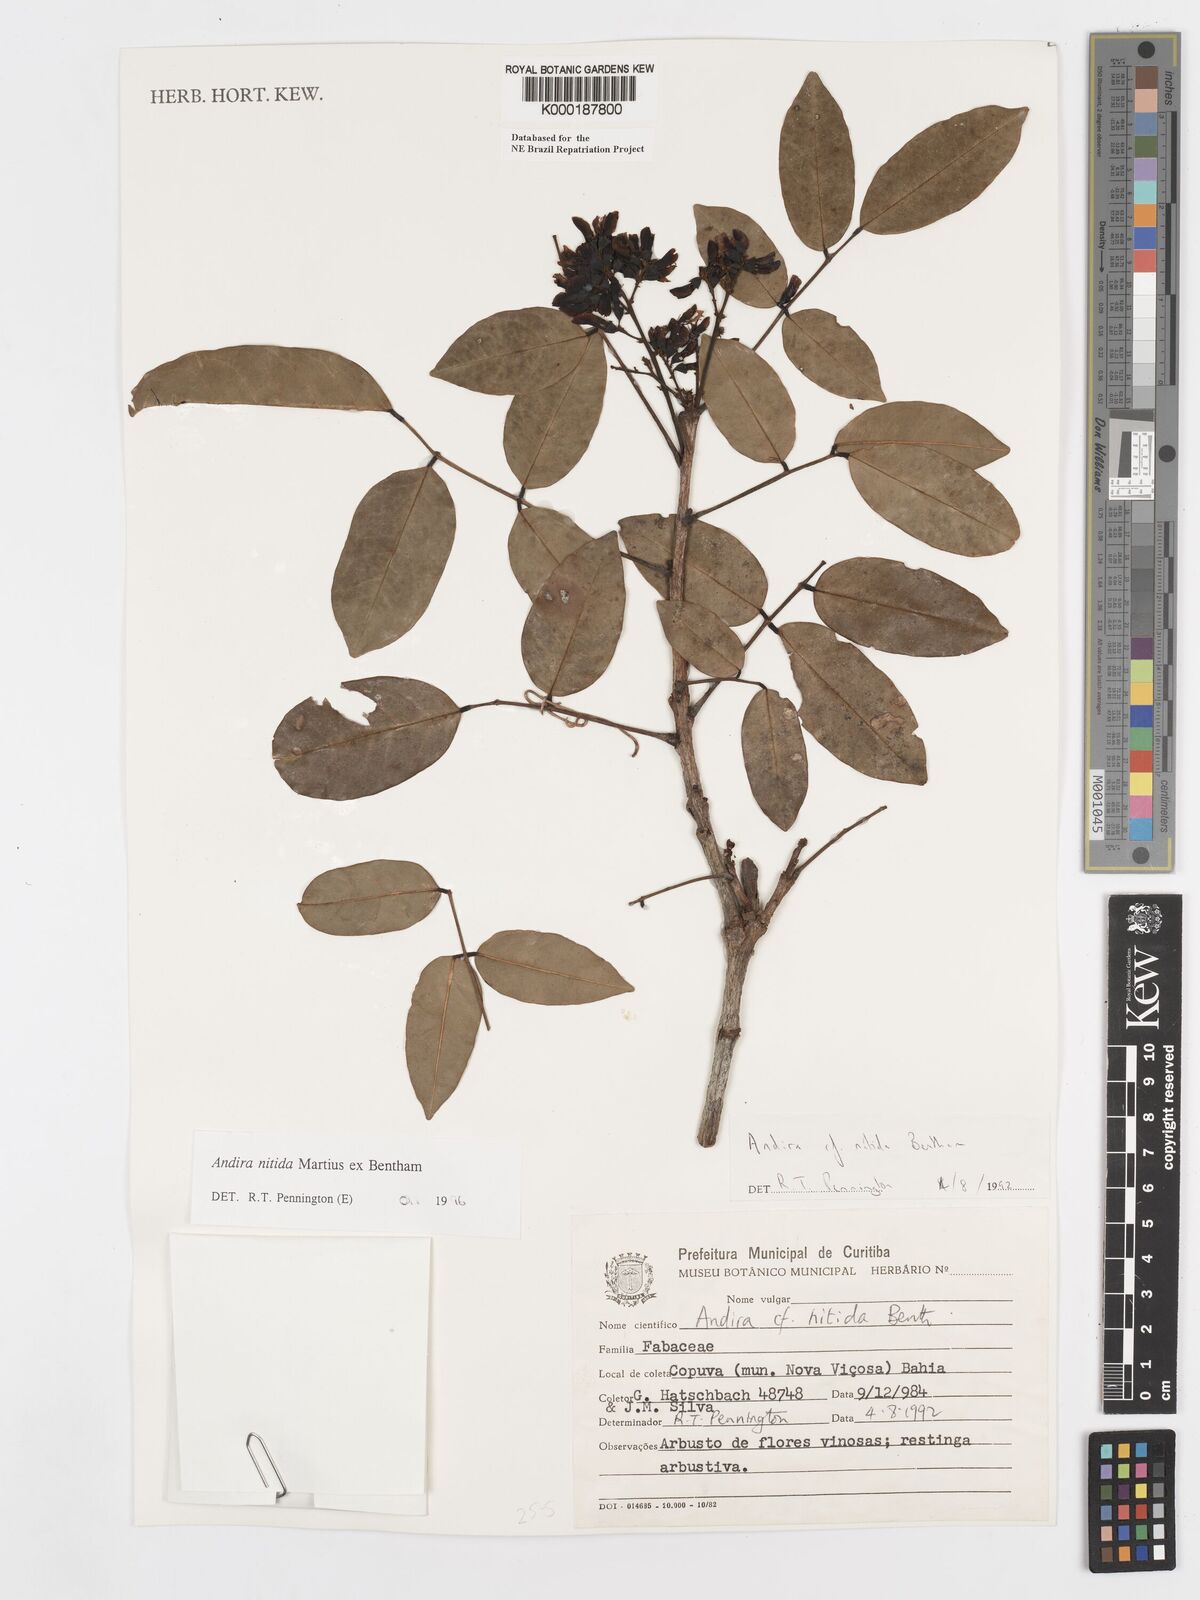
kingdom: Plantae
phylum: Tracheophyta
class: Magnoliopsida
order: Fabales
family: Fabaceae
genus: Andira
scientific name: Andira nitida
